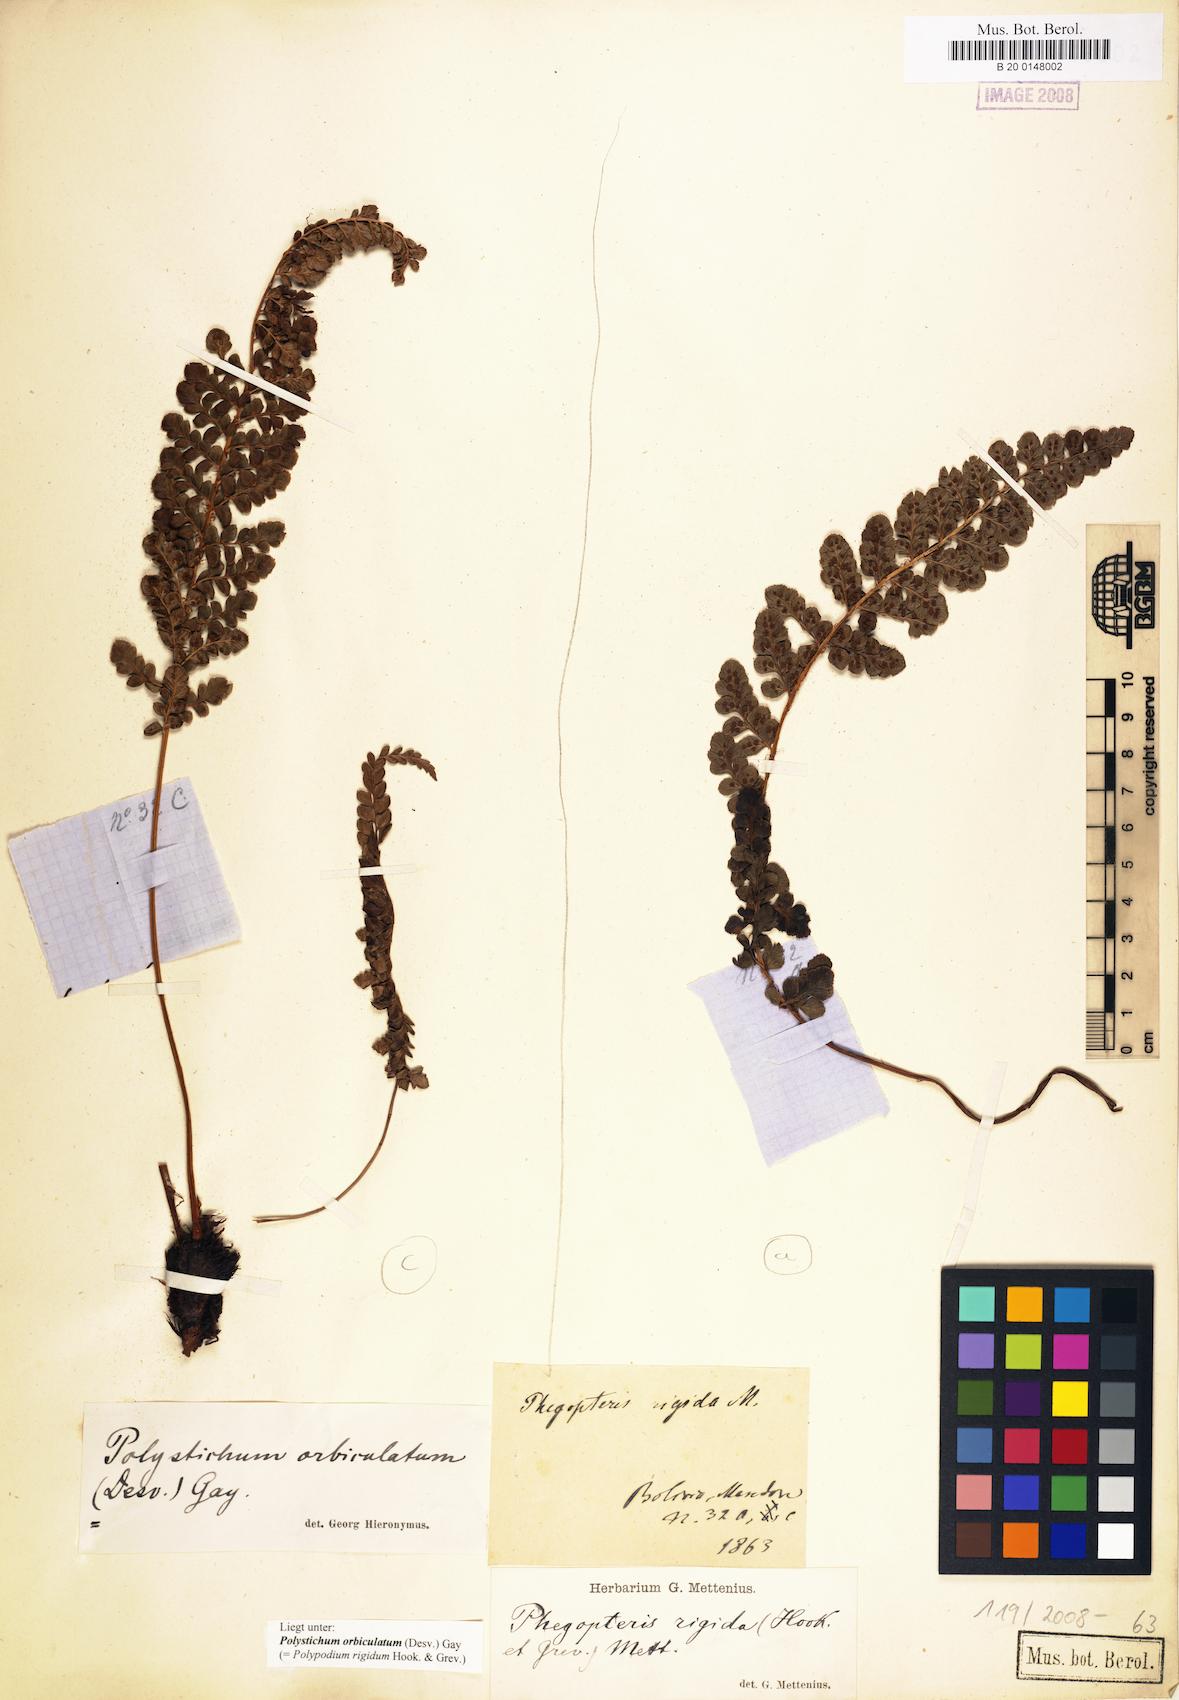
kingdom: Plantae
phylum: Tracheophyta
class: Polypodiopsida
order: Polypodiales
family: Dryopteridaceae
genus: Polystichum
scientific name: Polystichum orbiculatum
